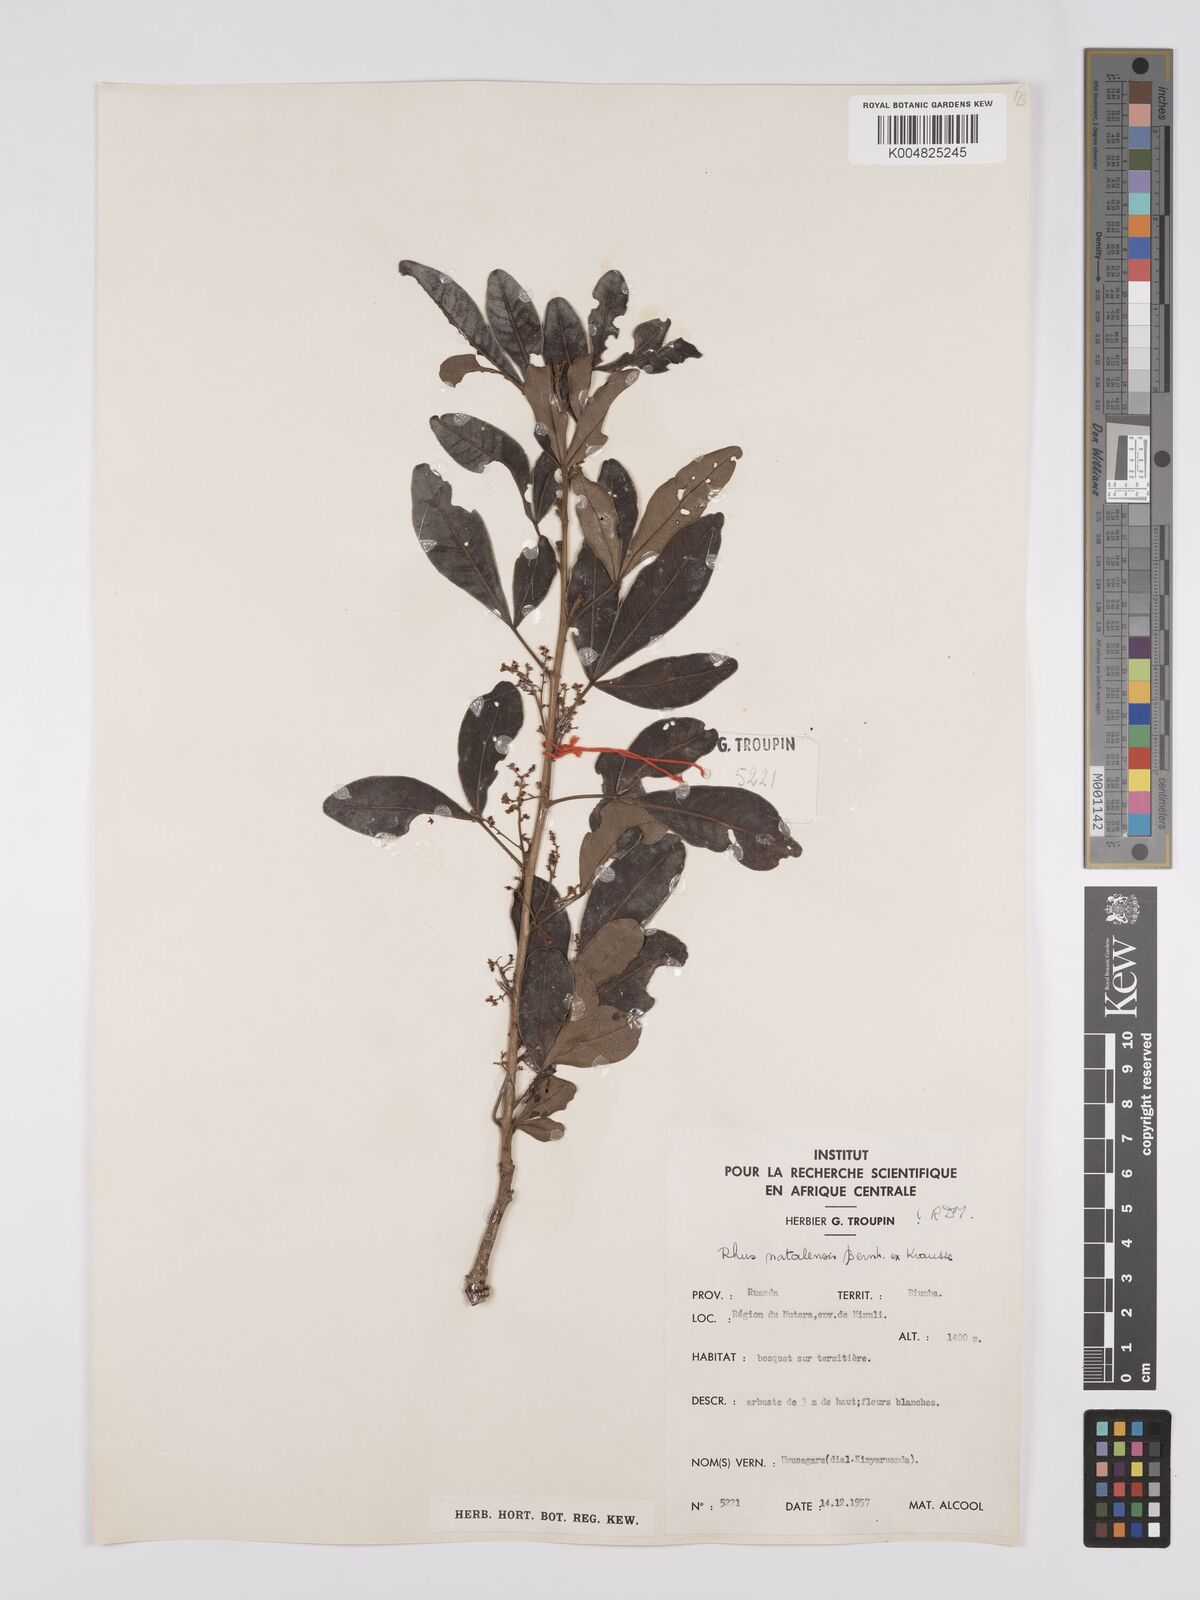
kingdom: Plantae
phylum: Tracheophyta
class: Magnoliopsida
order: Sapindales
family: Anacardiaceae
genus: Searsia
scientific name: Searsia natalensis
